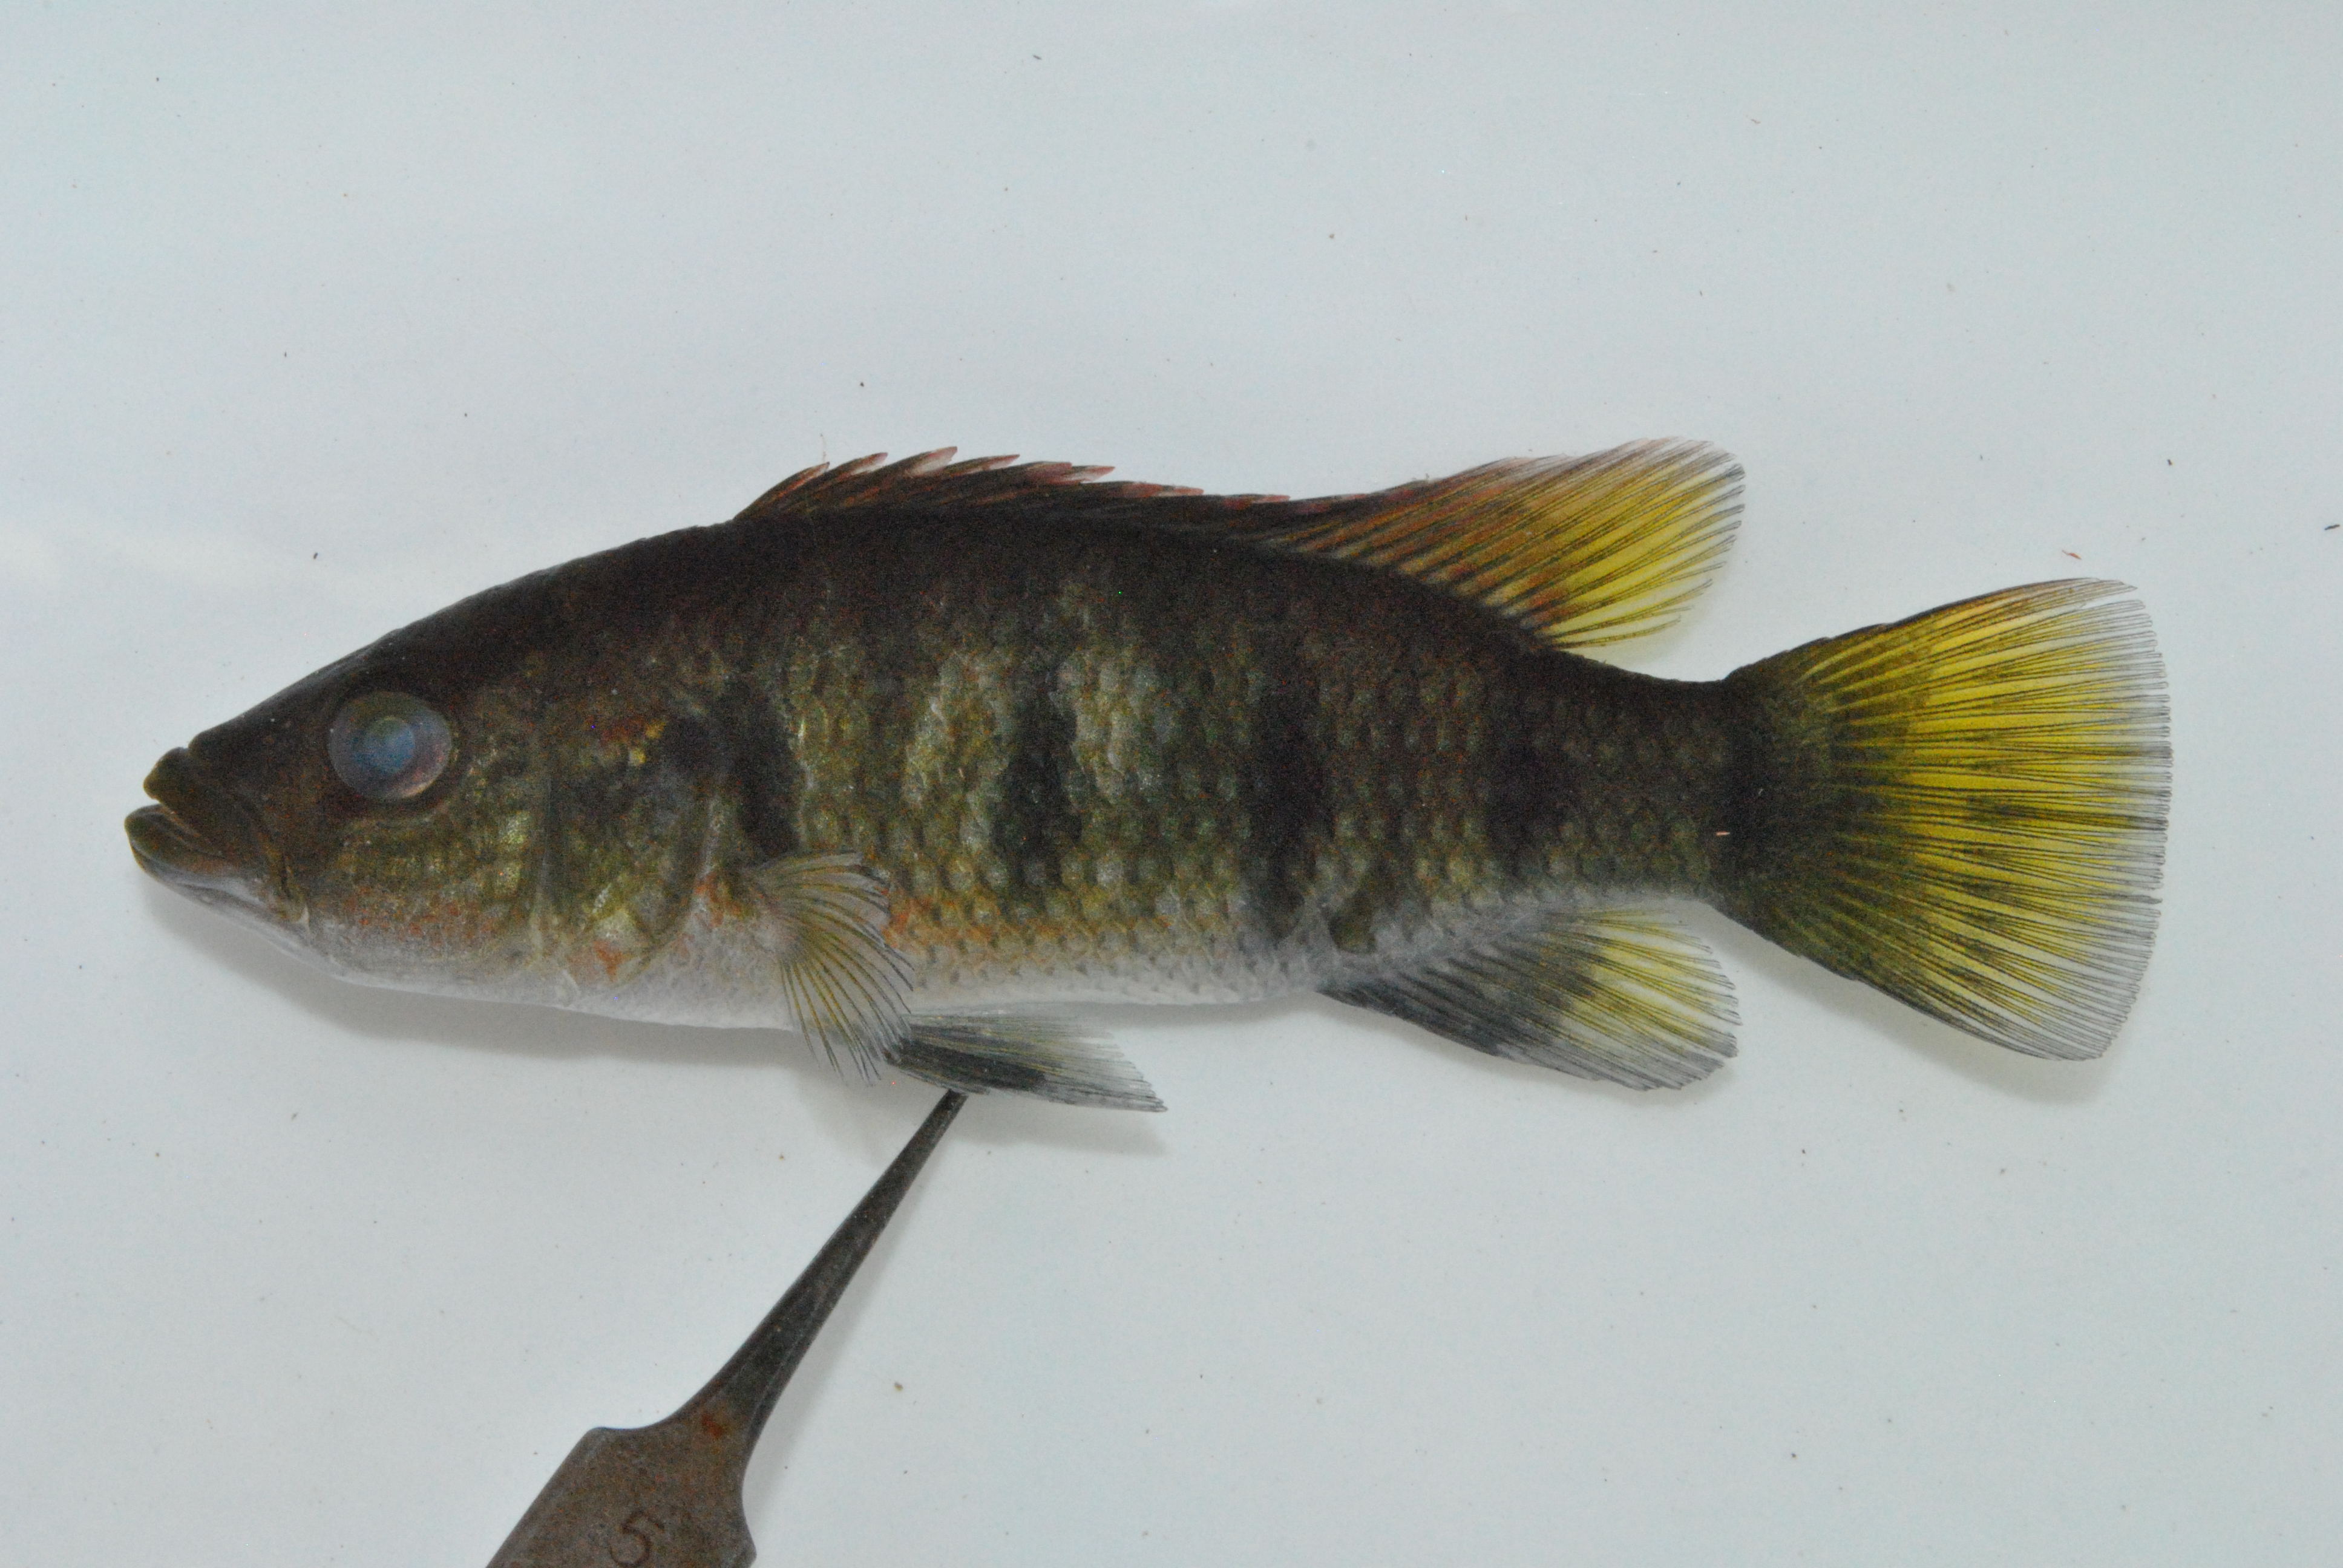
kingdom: Animalia
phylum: Chordata
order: Perciformes
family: Cichlidae
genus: Hemichromis
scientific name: Hemichromis elongatus
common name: Jewel cichlid
